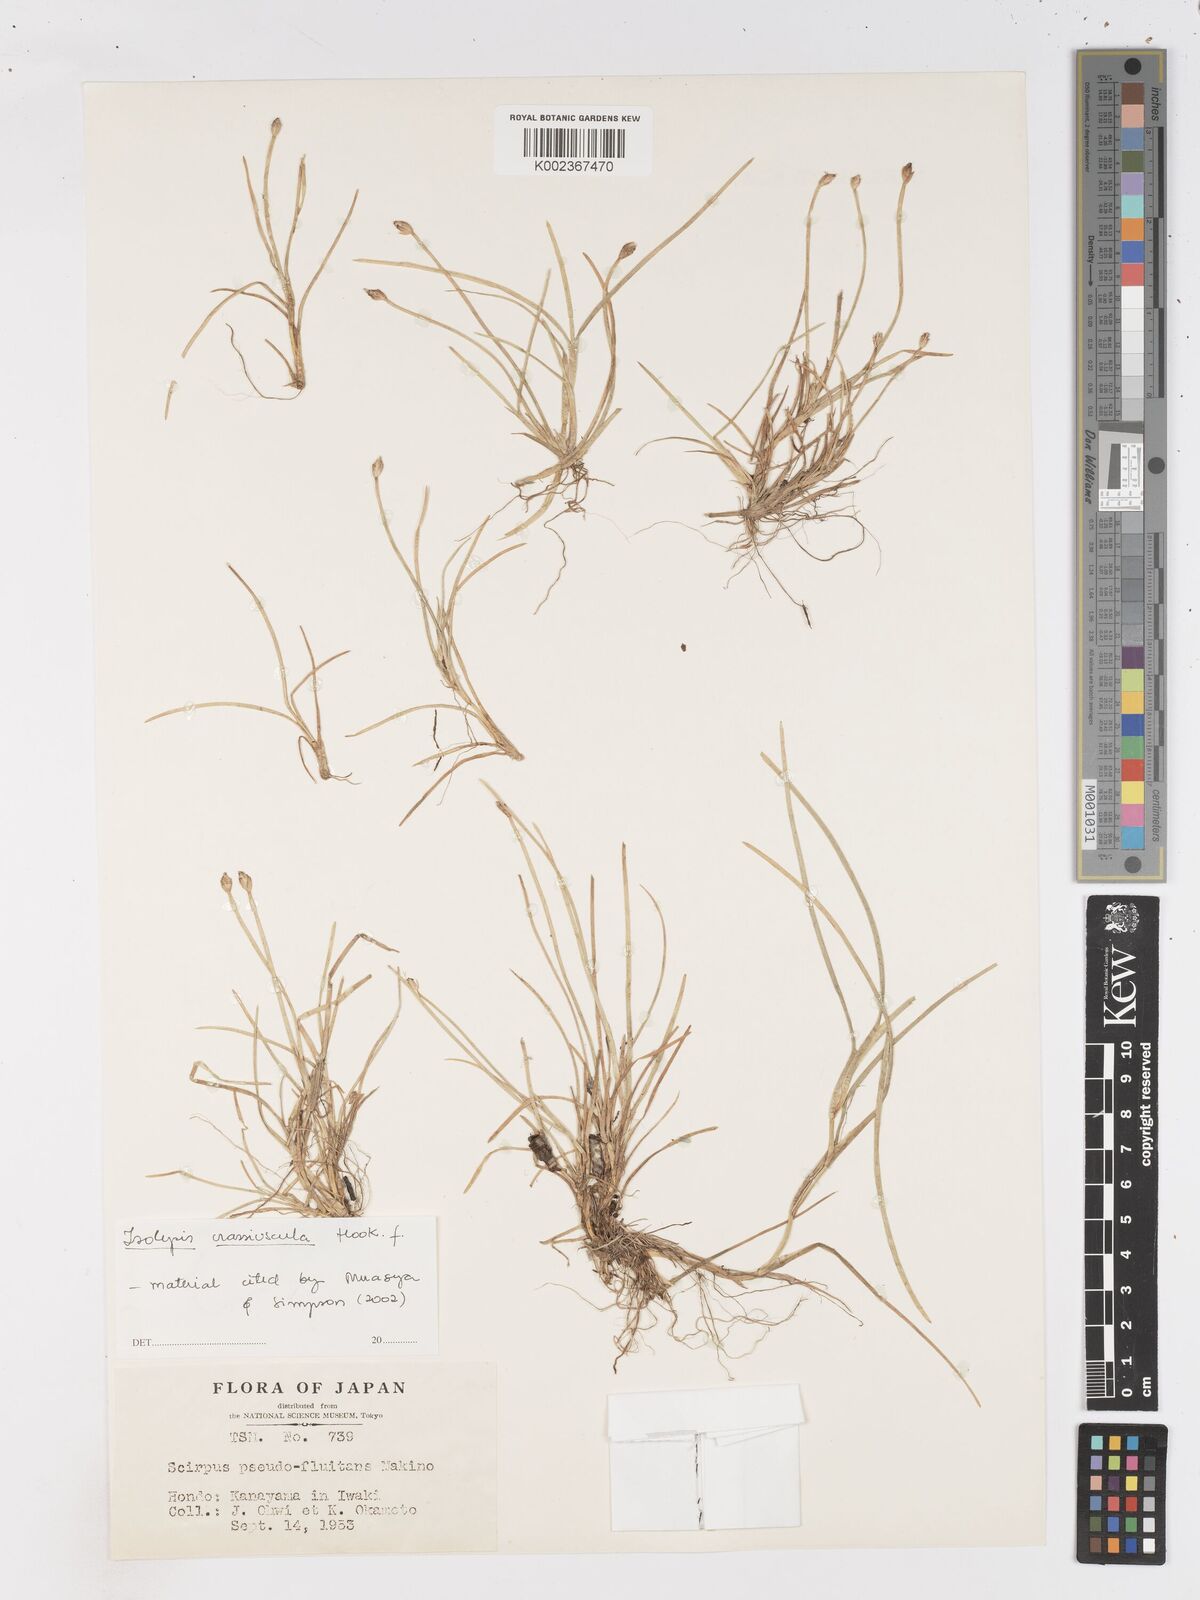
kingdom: Plantae
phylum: Tracheophyta
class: Liliopsida
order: Poales
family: Cyperaceae
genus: Isolepis
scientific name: Isolepis crassiuscula
